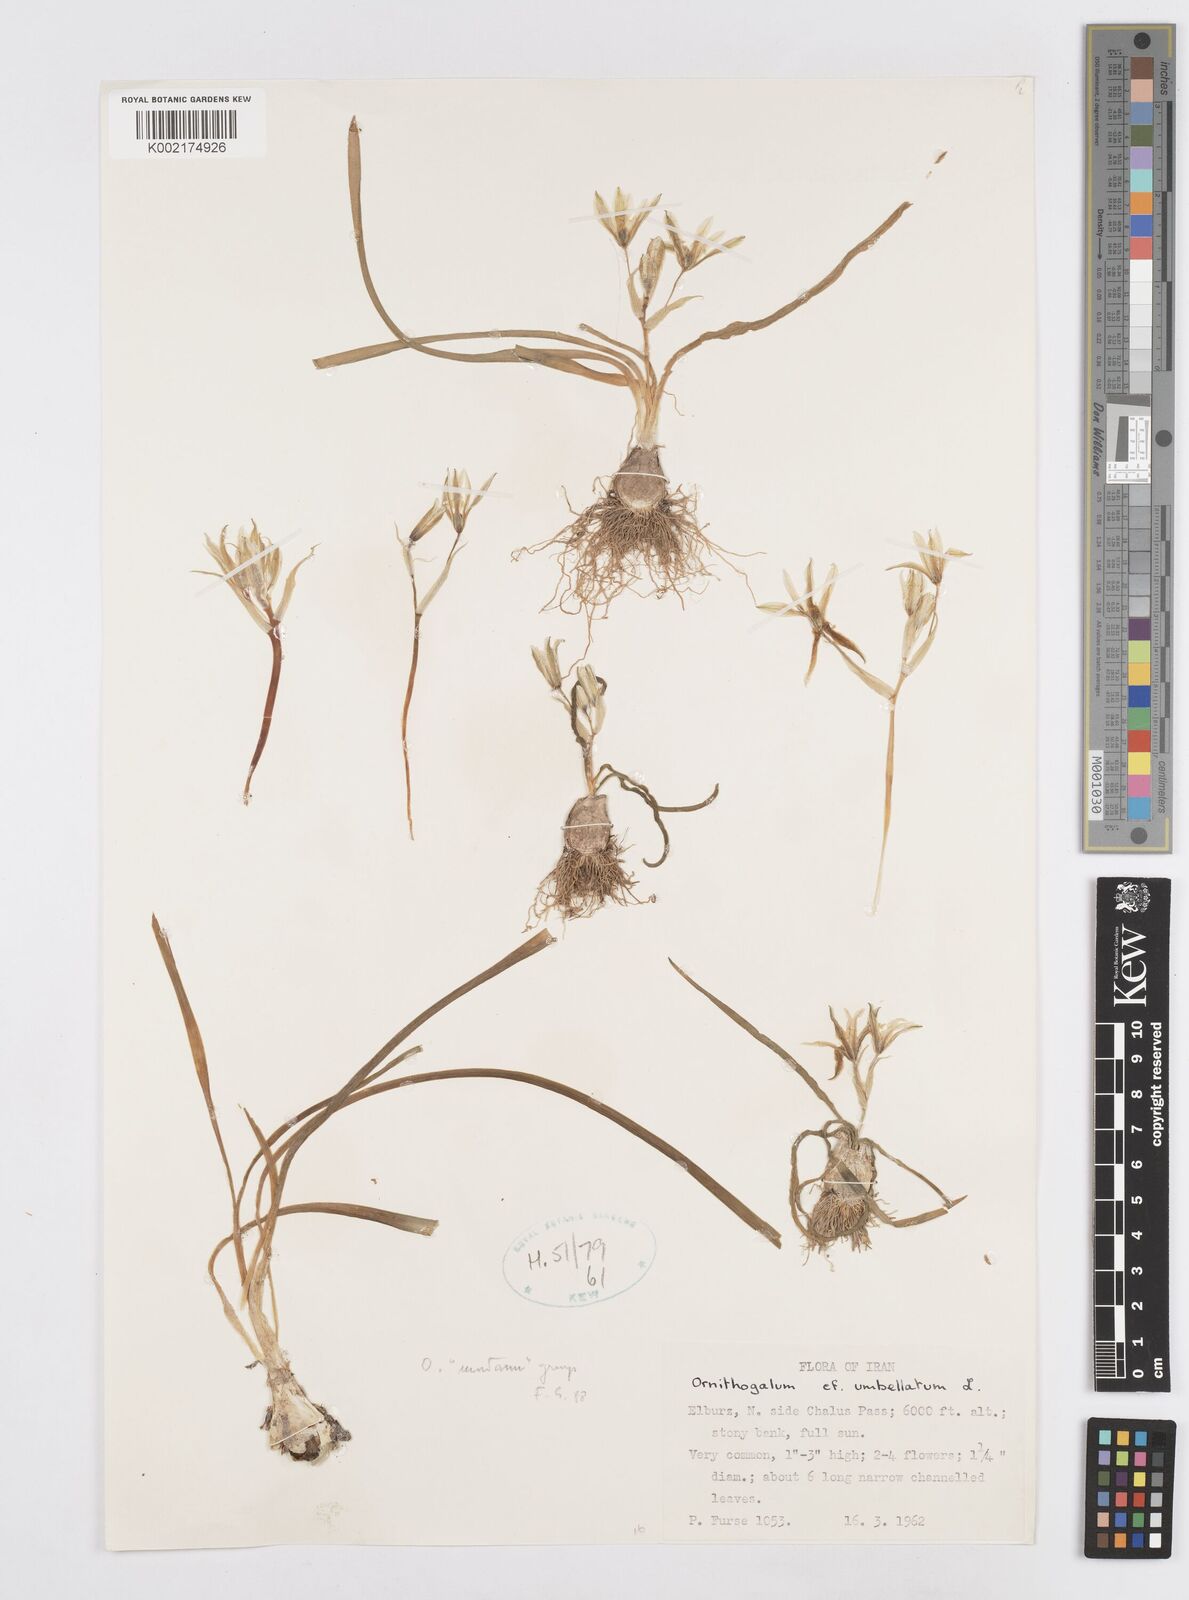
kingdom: Plantae
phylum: Tracheophyta
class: Liliopsida
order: Asparagales
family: Asparagaceae
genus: Ornithogalum
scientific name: Ornithogalum umbellatum
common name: Garden star-of-bethlehem
